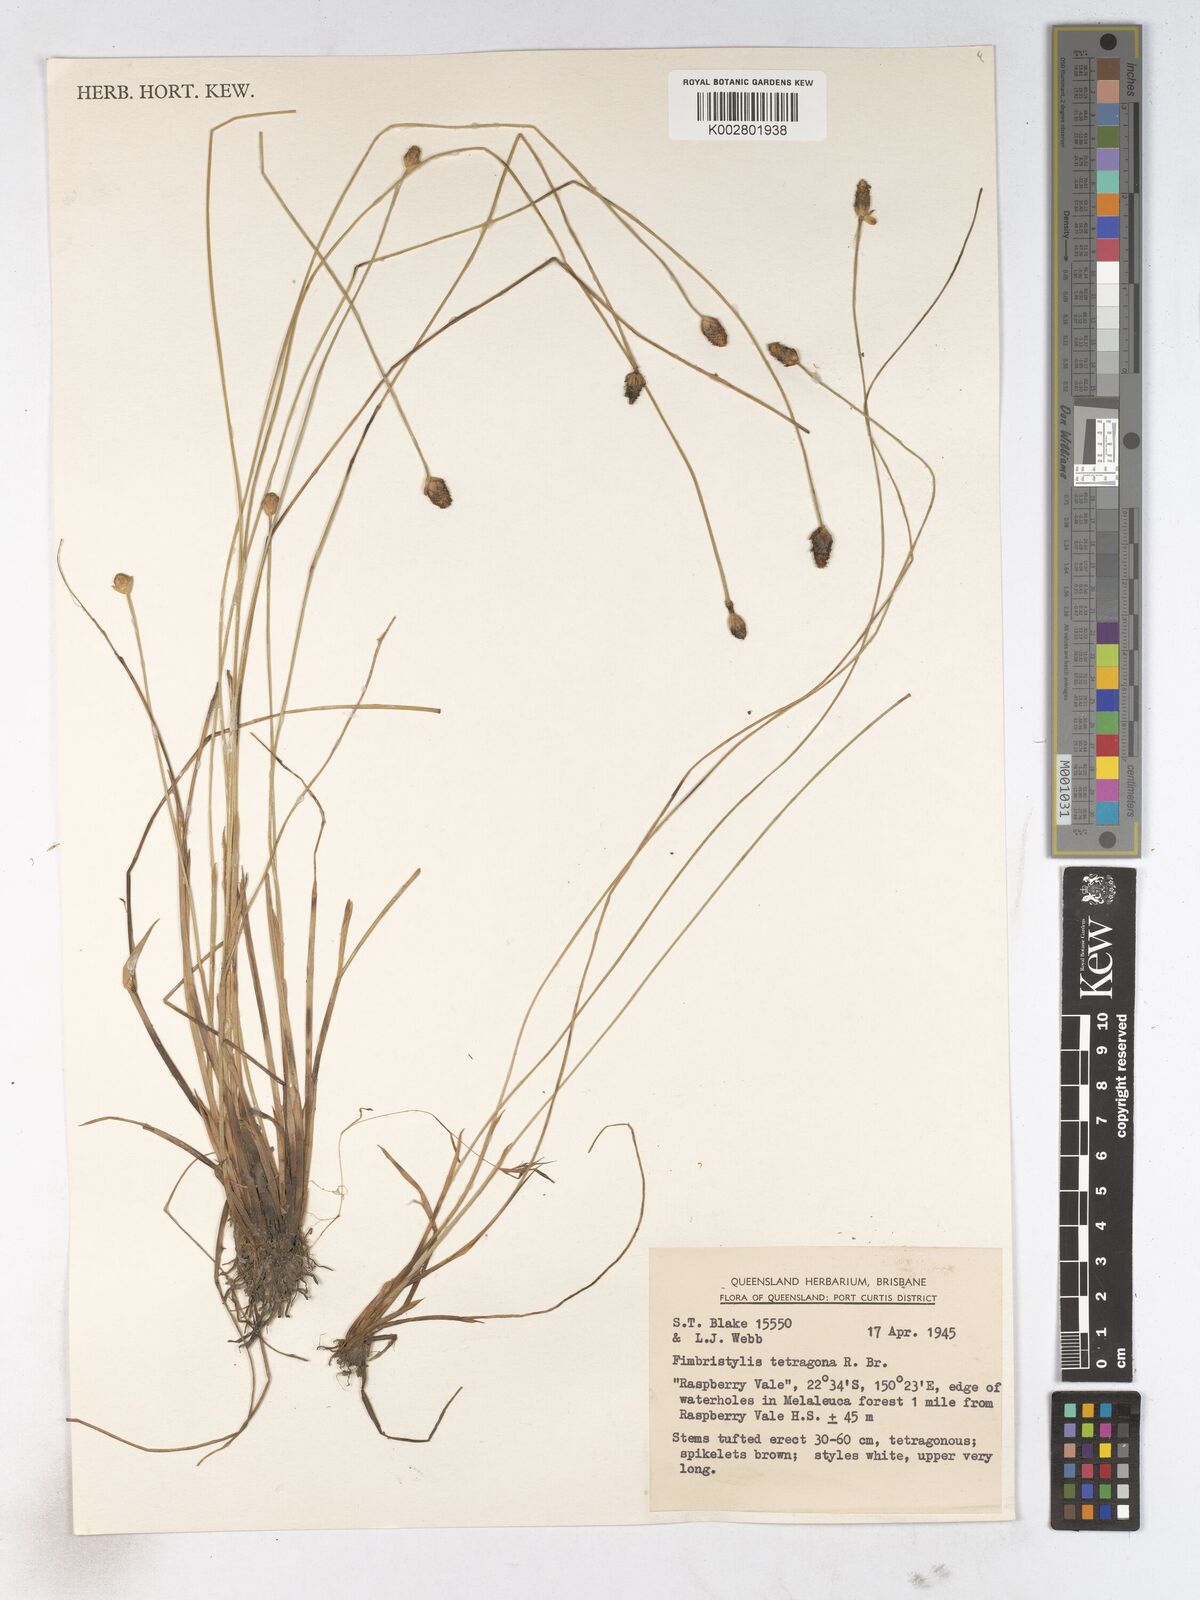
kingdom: Plantae
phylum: Tracheophyta
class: Liliopsida
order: Poales
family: Cyperaceae
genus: Fimbristylis
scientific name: Fimbristylis tetragona
